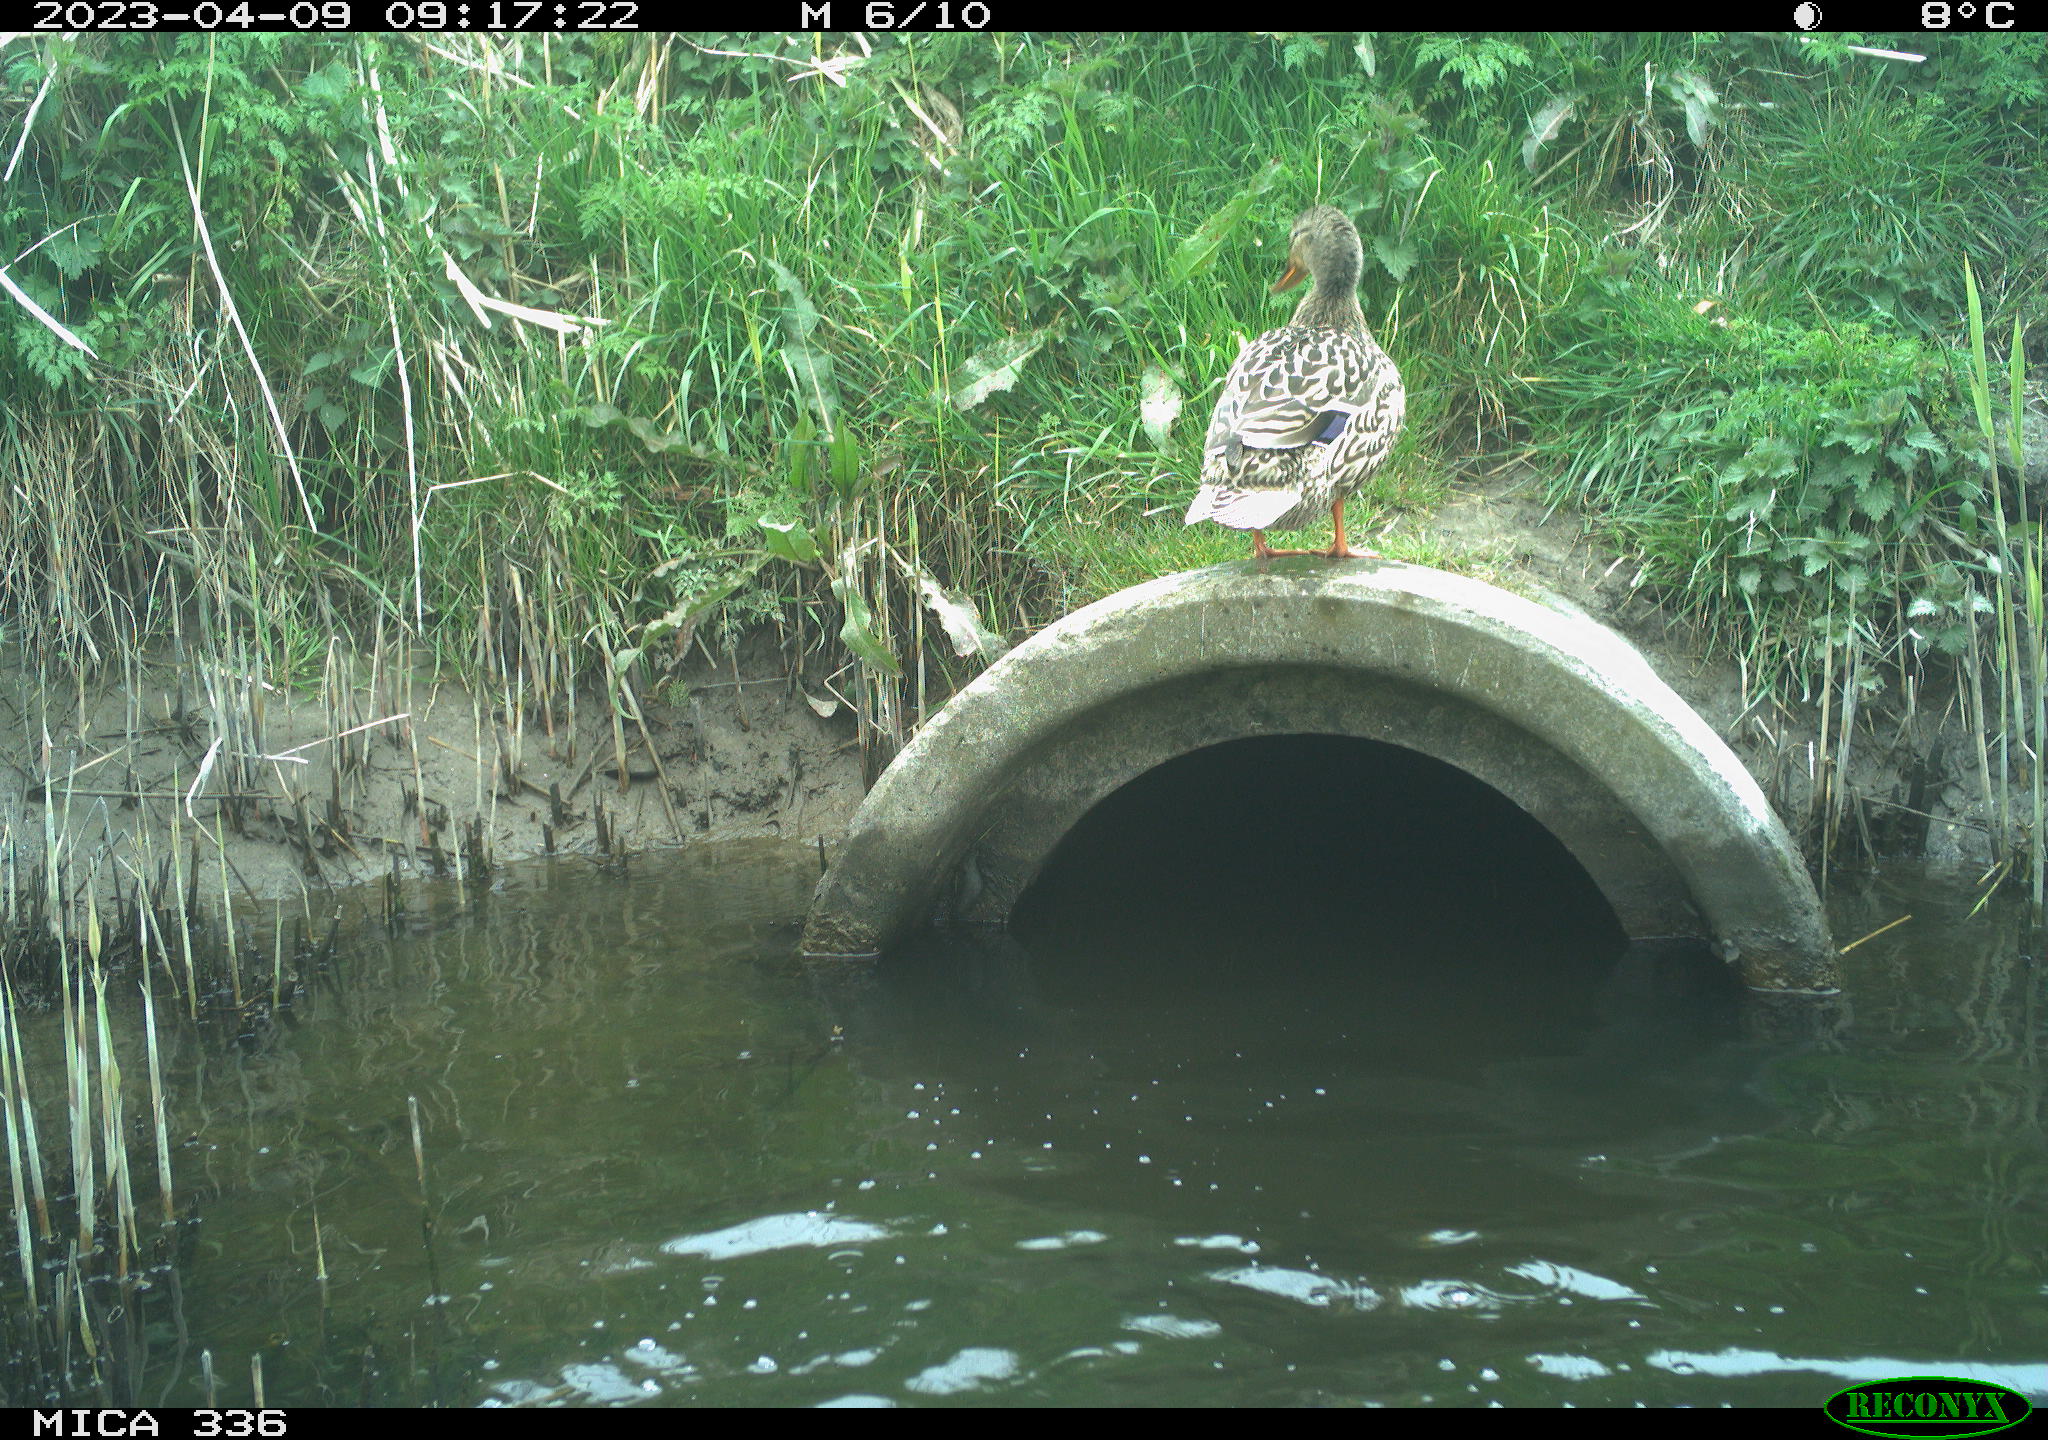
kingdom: Animalia
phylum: Chordata
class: Aves
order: Anseriformes
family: Anatidae
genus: Anas
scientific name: Anas
